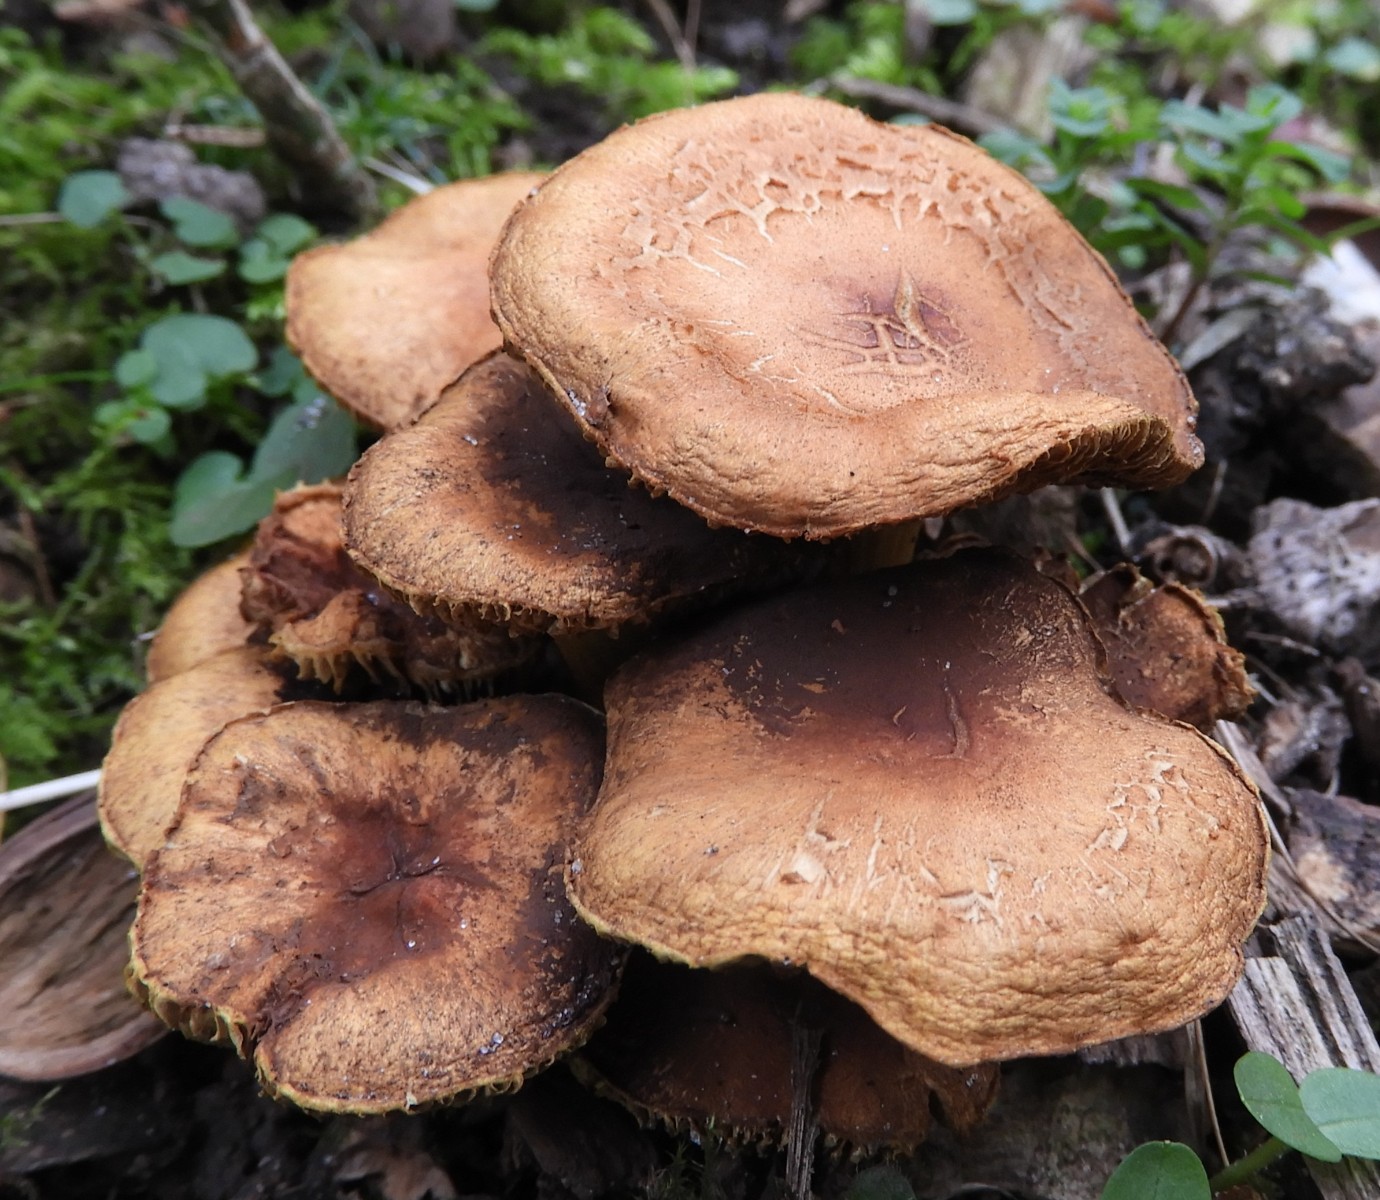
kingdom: Fungi
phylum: Basidiomycota
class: Agaricomycetes
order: Agaricales
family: Strophariaceae
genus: Hypholoma
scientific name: Hypholoma fasciculare
